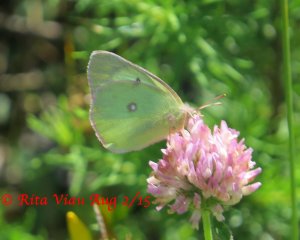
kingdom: Animalia
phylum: Arthropoda
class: Insecta
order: Lepidoptera
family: Pieridae
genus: Colias
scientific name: Colias interior
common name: Pink-edged Sulphur
